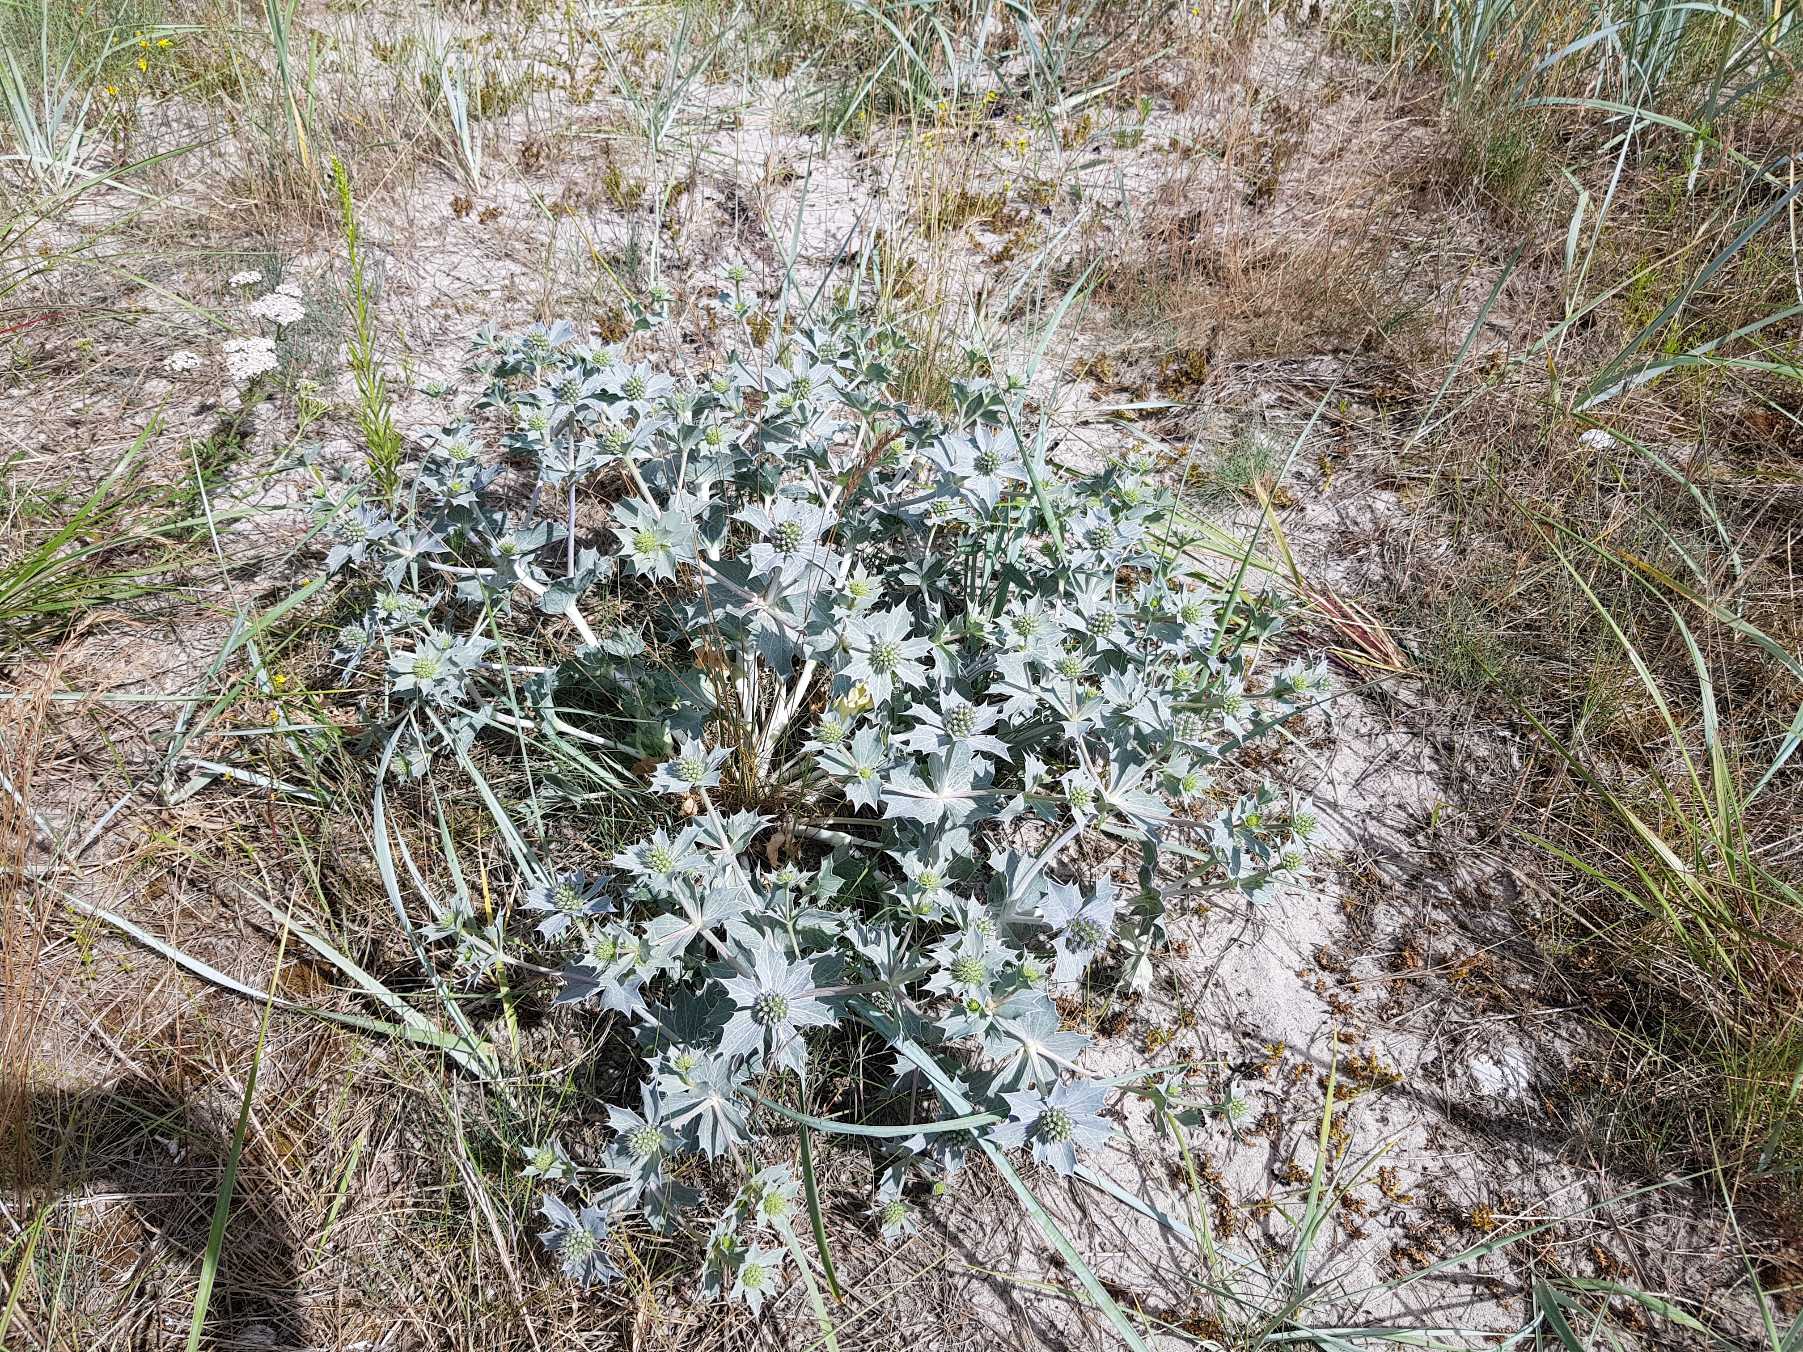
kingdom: Plantae
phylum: Tracheophyta
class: Magnoliopsida
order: Apiales
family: Apiaceae
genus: Eryngium
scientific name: Eryngium maritimum
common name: Strand-mandstro
